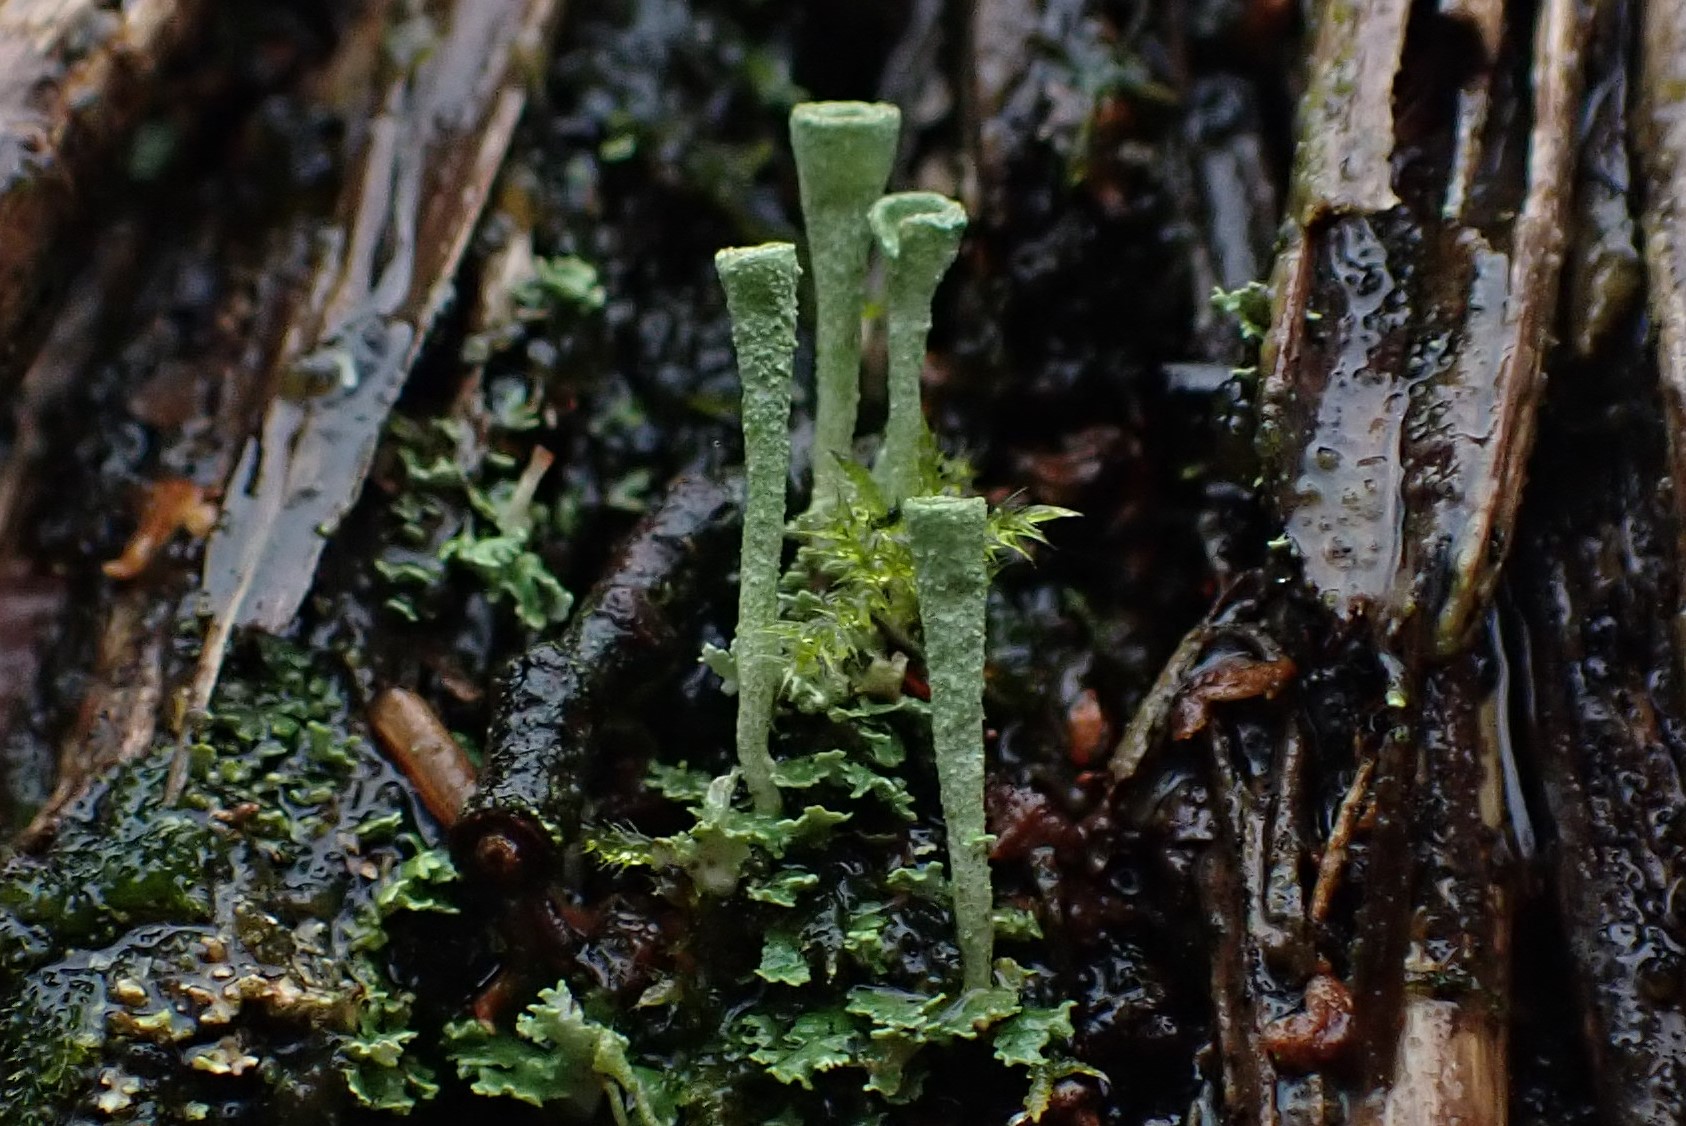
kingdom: Fungi
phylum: Ascomycota
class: Lecanoromycetes
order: Lecanorales
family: Cladoniaceae
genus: Cladonia
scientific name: Cladonia fimbriata
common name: bleggrøn bægerlav
